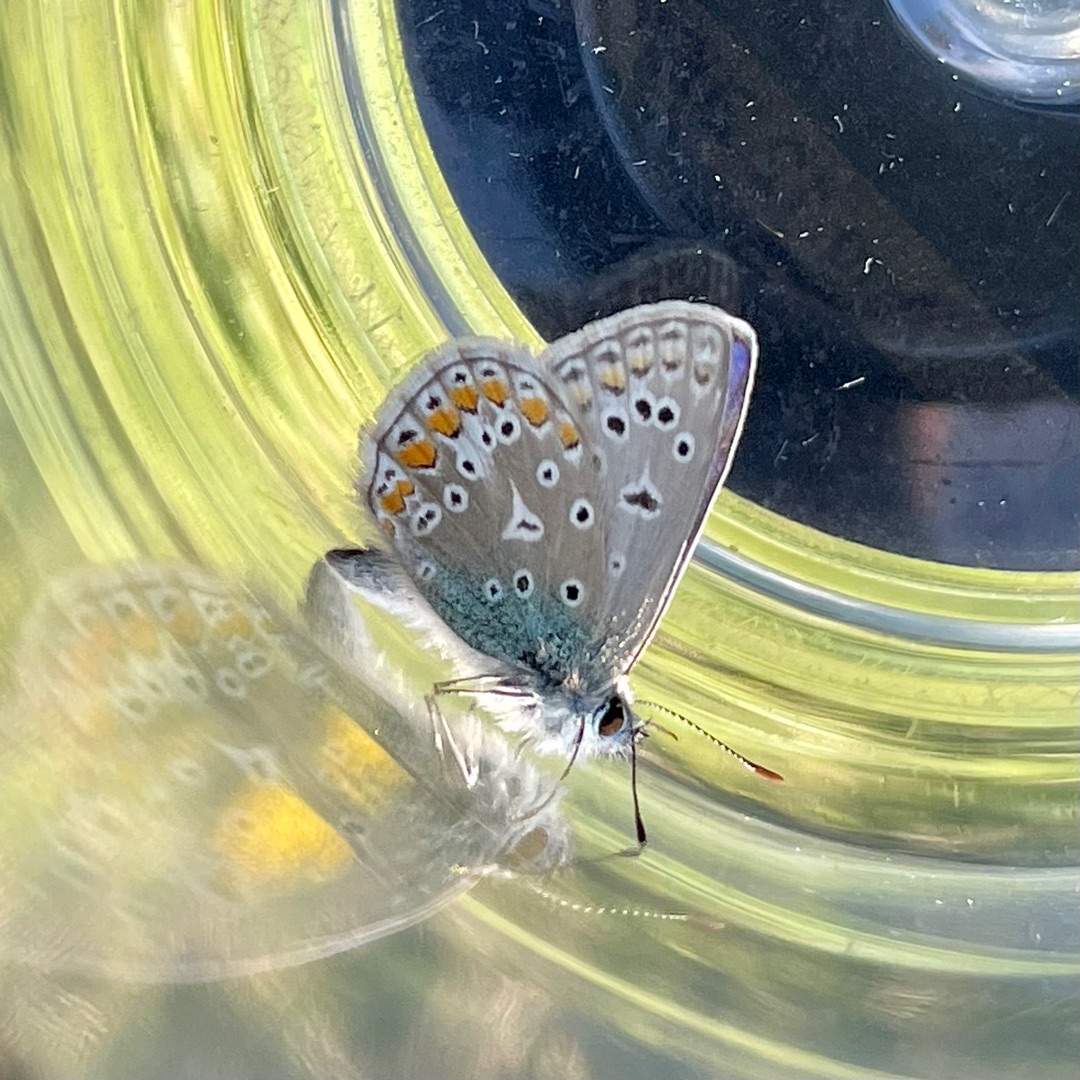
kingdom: Animalia
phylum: Arthropoda
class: Insecta
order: Lepidoptera
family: Lycaenidae
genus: Polyommatus
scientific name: Polyommatus icarus
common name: Almindelig blåfugl
